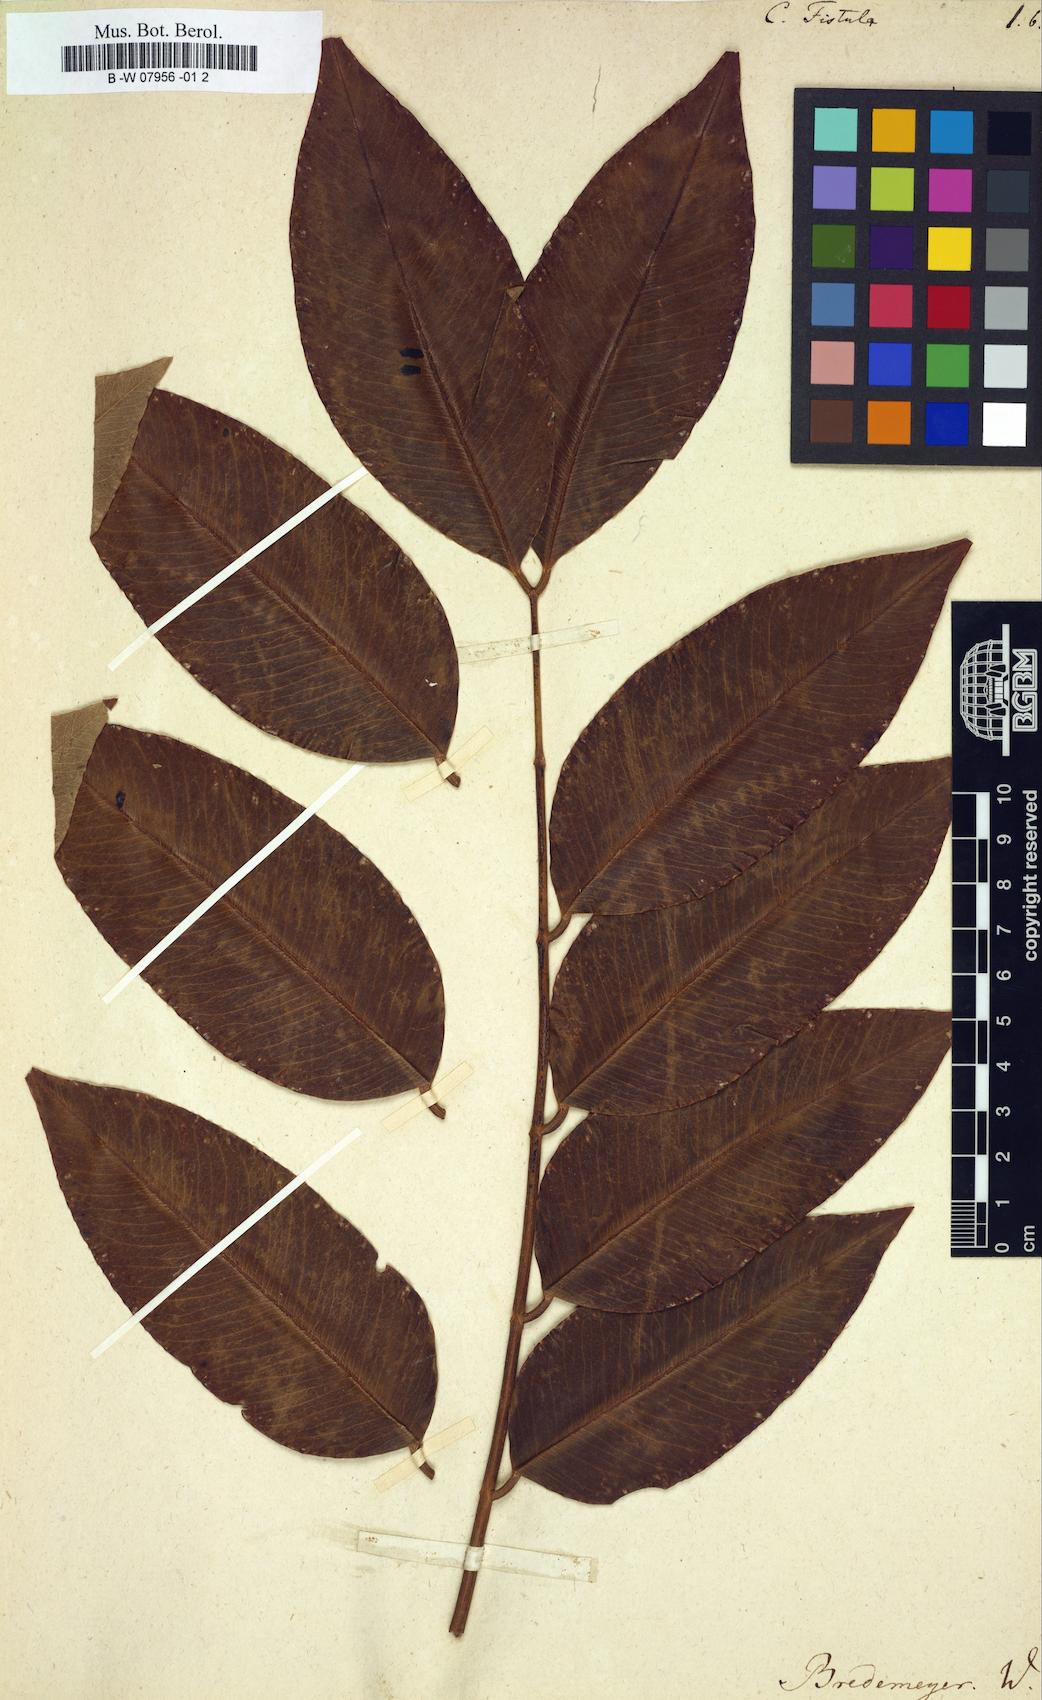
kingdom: Plantae
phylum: Tracheophyta
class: Magnoliopsida
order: Fabales
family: Fabaceae
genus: Cassia
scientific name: Cassia fistula
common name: Golden shower
